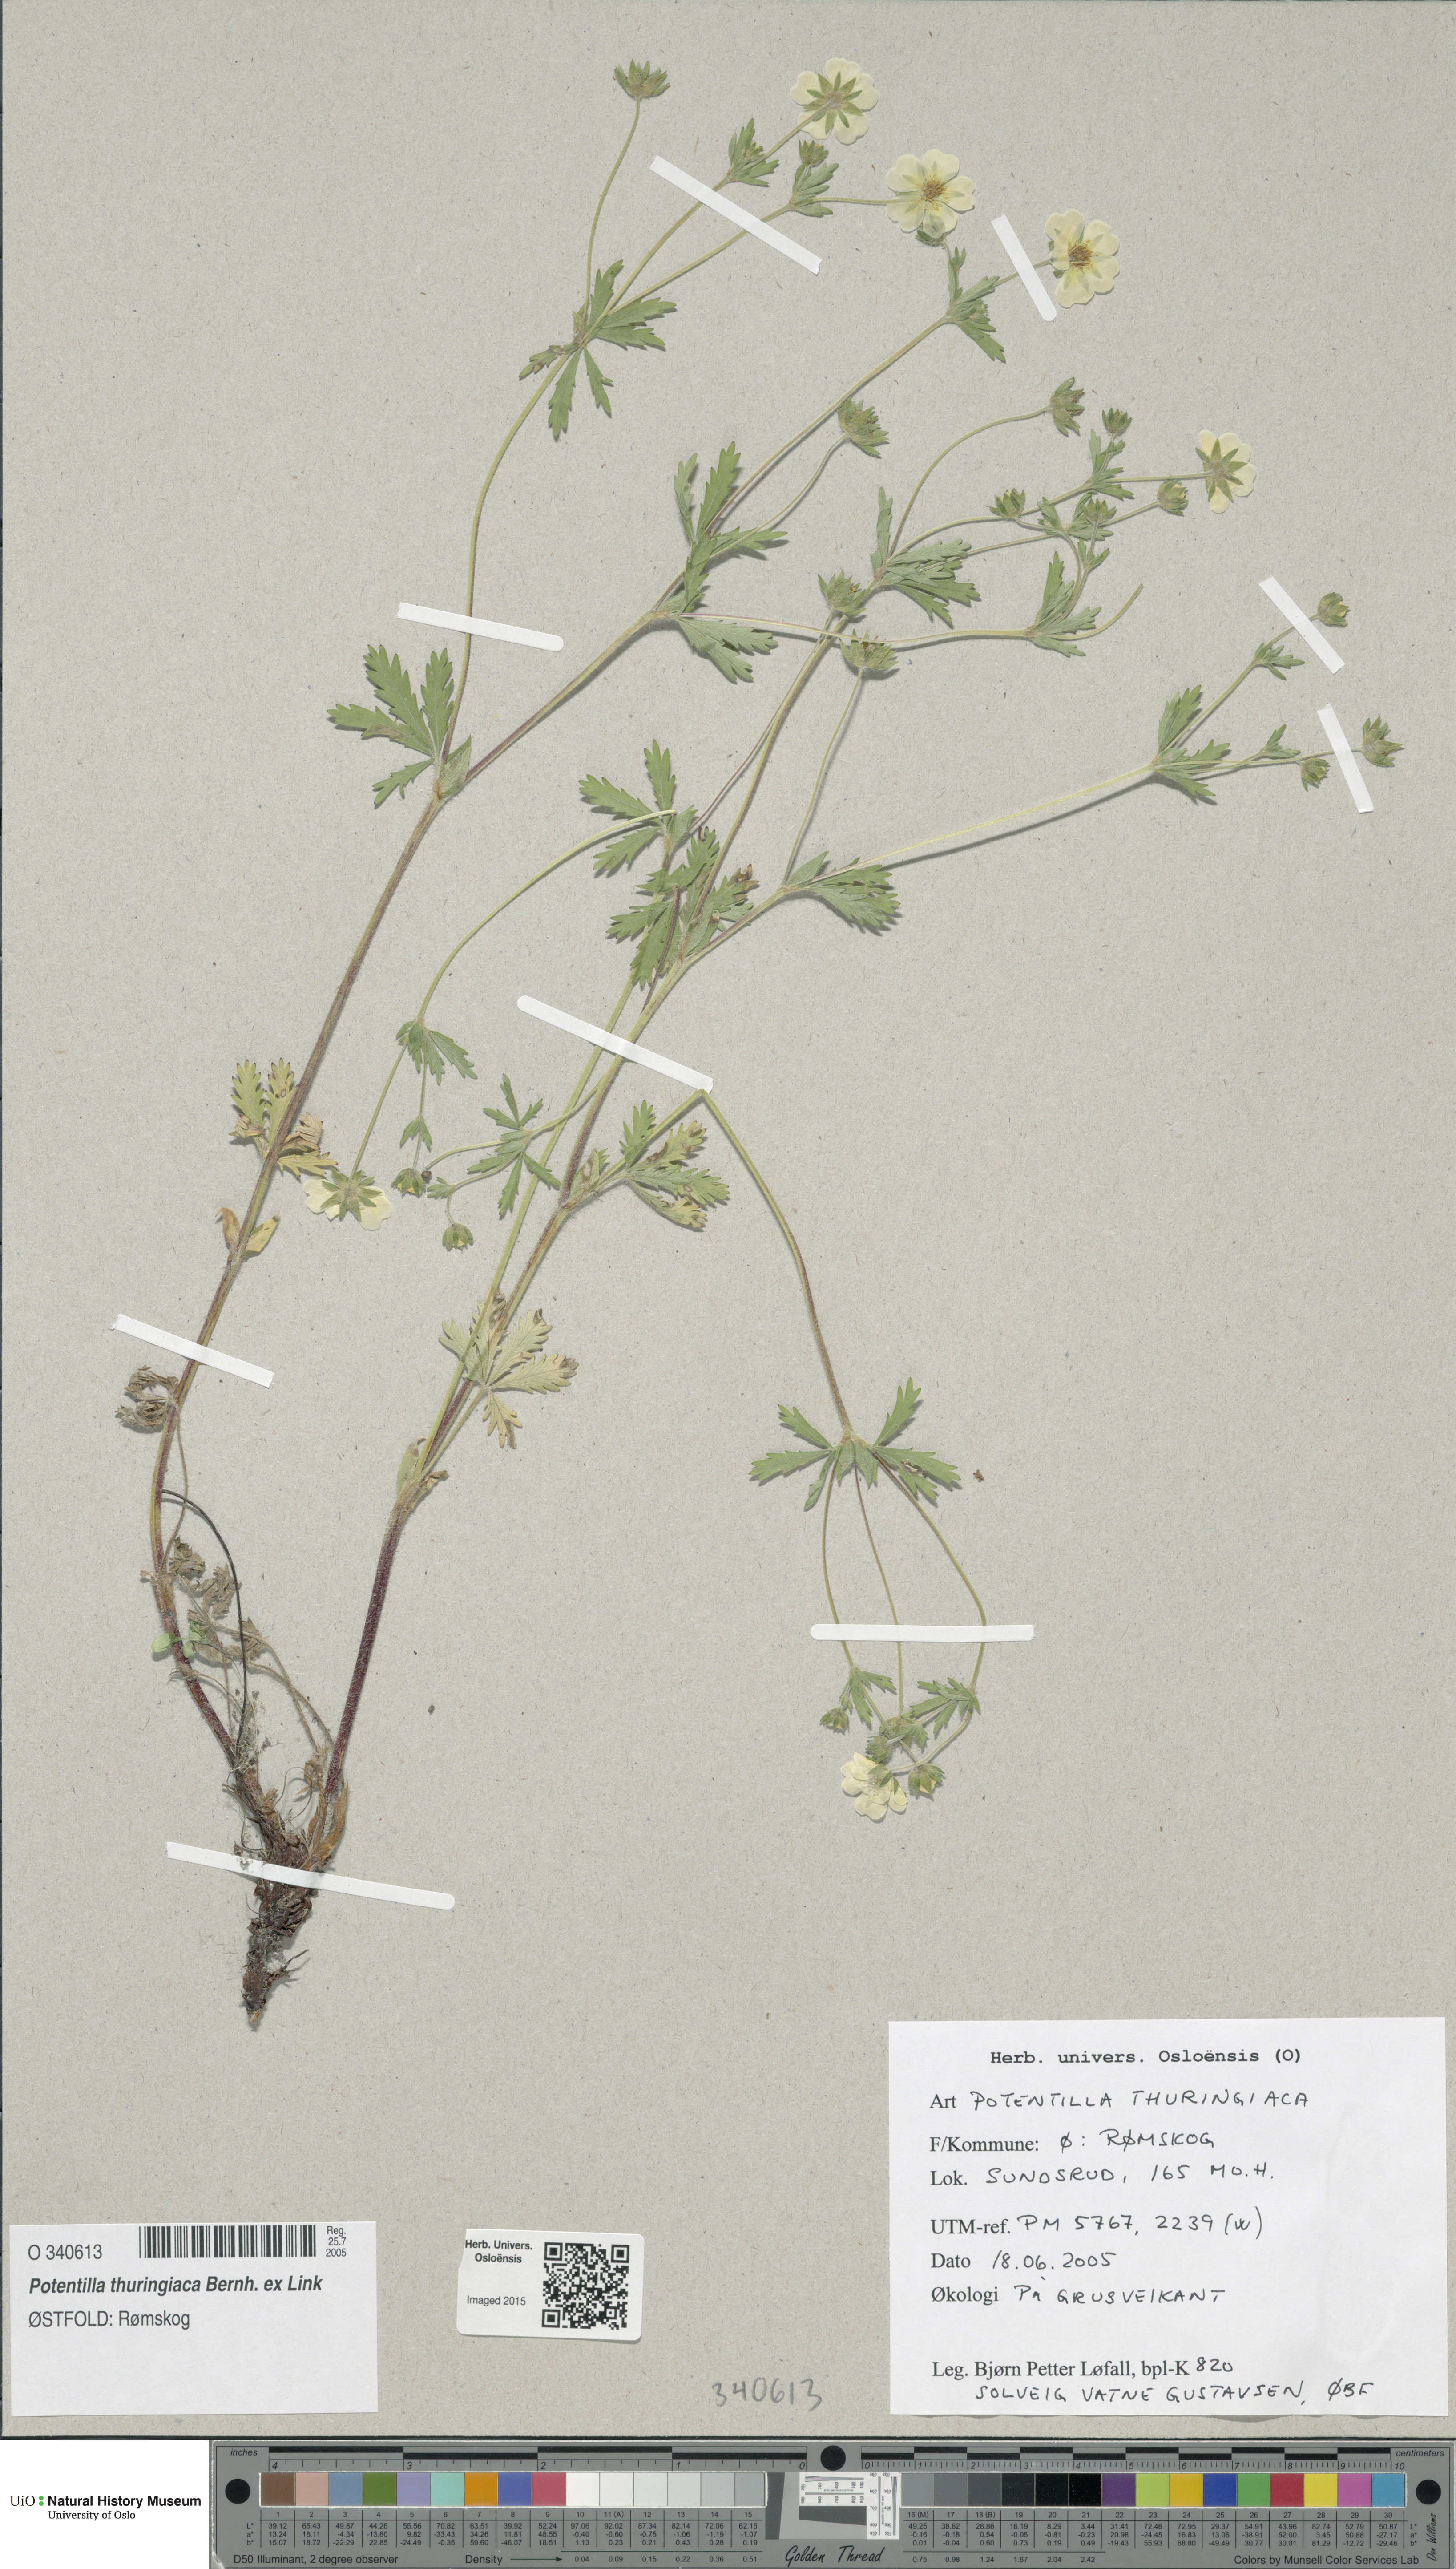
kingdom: Plantae
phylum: Tracheophyta
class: Magnoliopsida
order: Rosales
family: Rosaceae
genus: Potentilla
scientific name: Potentilla thuringiaca
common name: European cinquefoil
